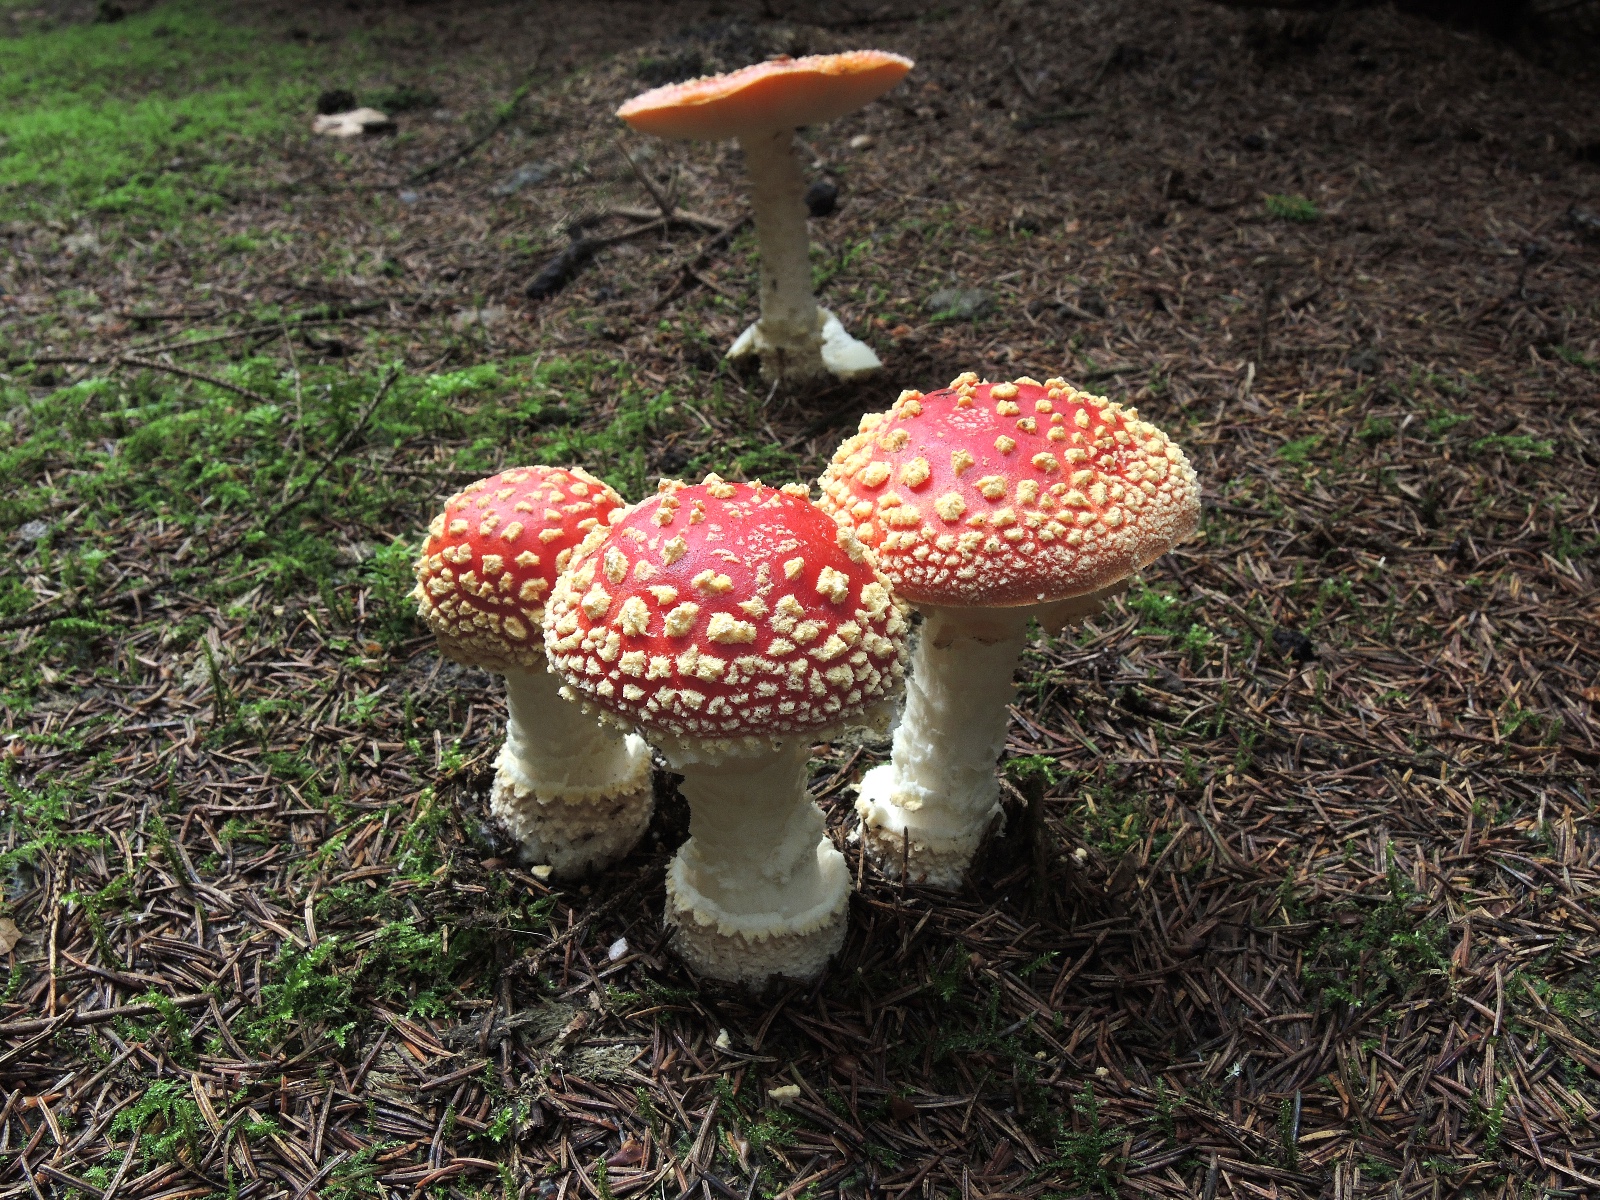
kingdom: Fungi
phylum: Basidiomycota
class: Agaricomycetes
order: Agaricales
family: Amanitaceae
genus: Amanita
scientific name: Amanita muscaria
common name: rød fluesvamp
